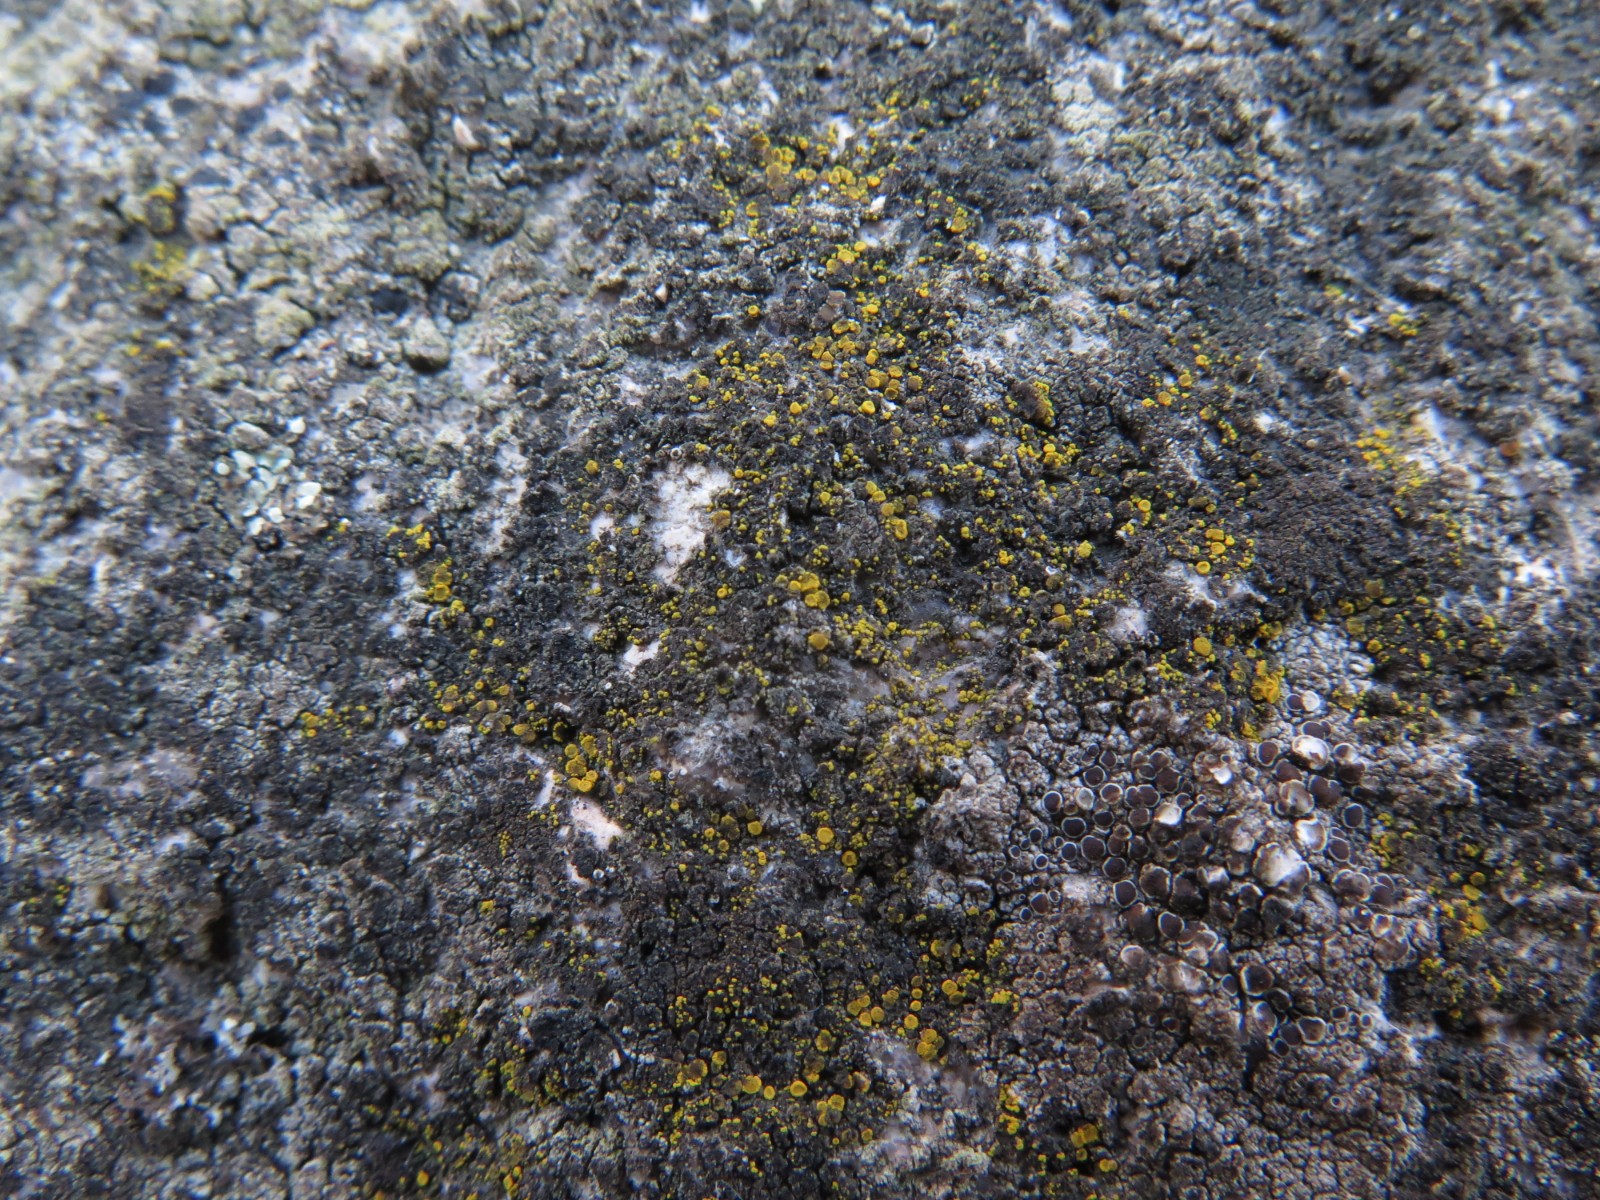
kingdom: Fungi
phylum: Ascomycota
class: Candelariomycetes
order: Candelariales
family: Candelariaceae
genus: Candelariella
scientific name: Candelariella aurella
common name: liden æggeblommelav
